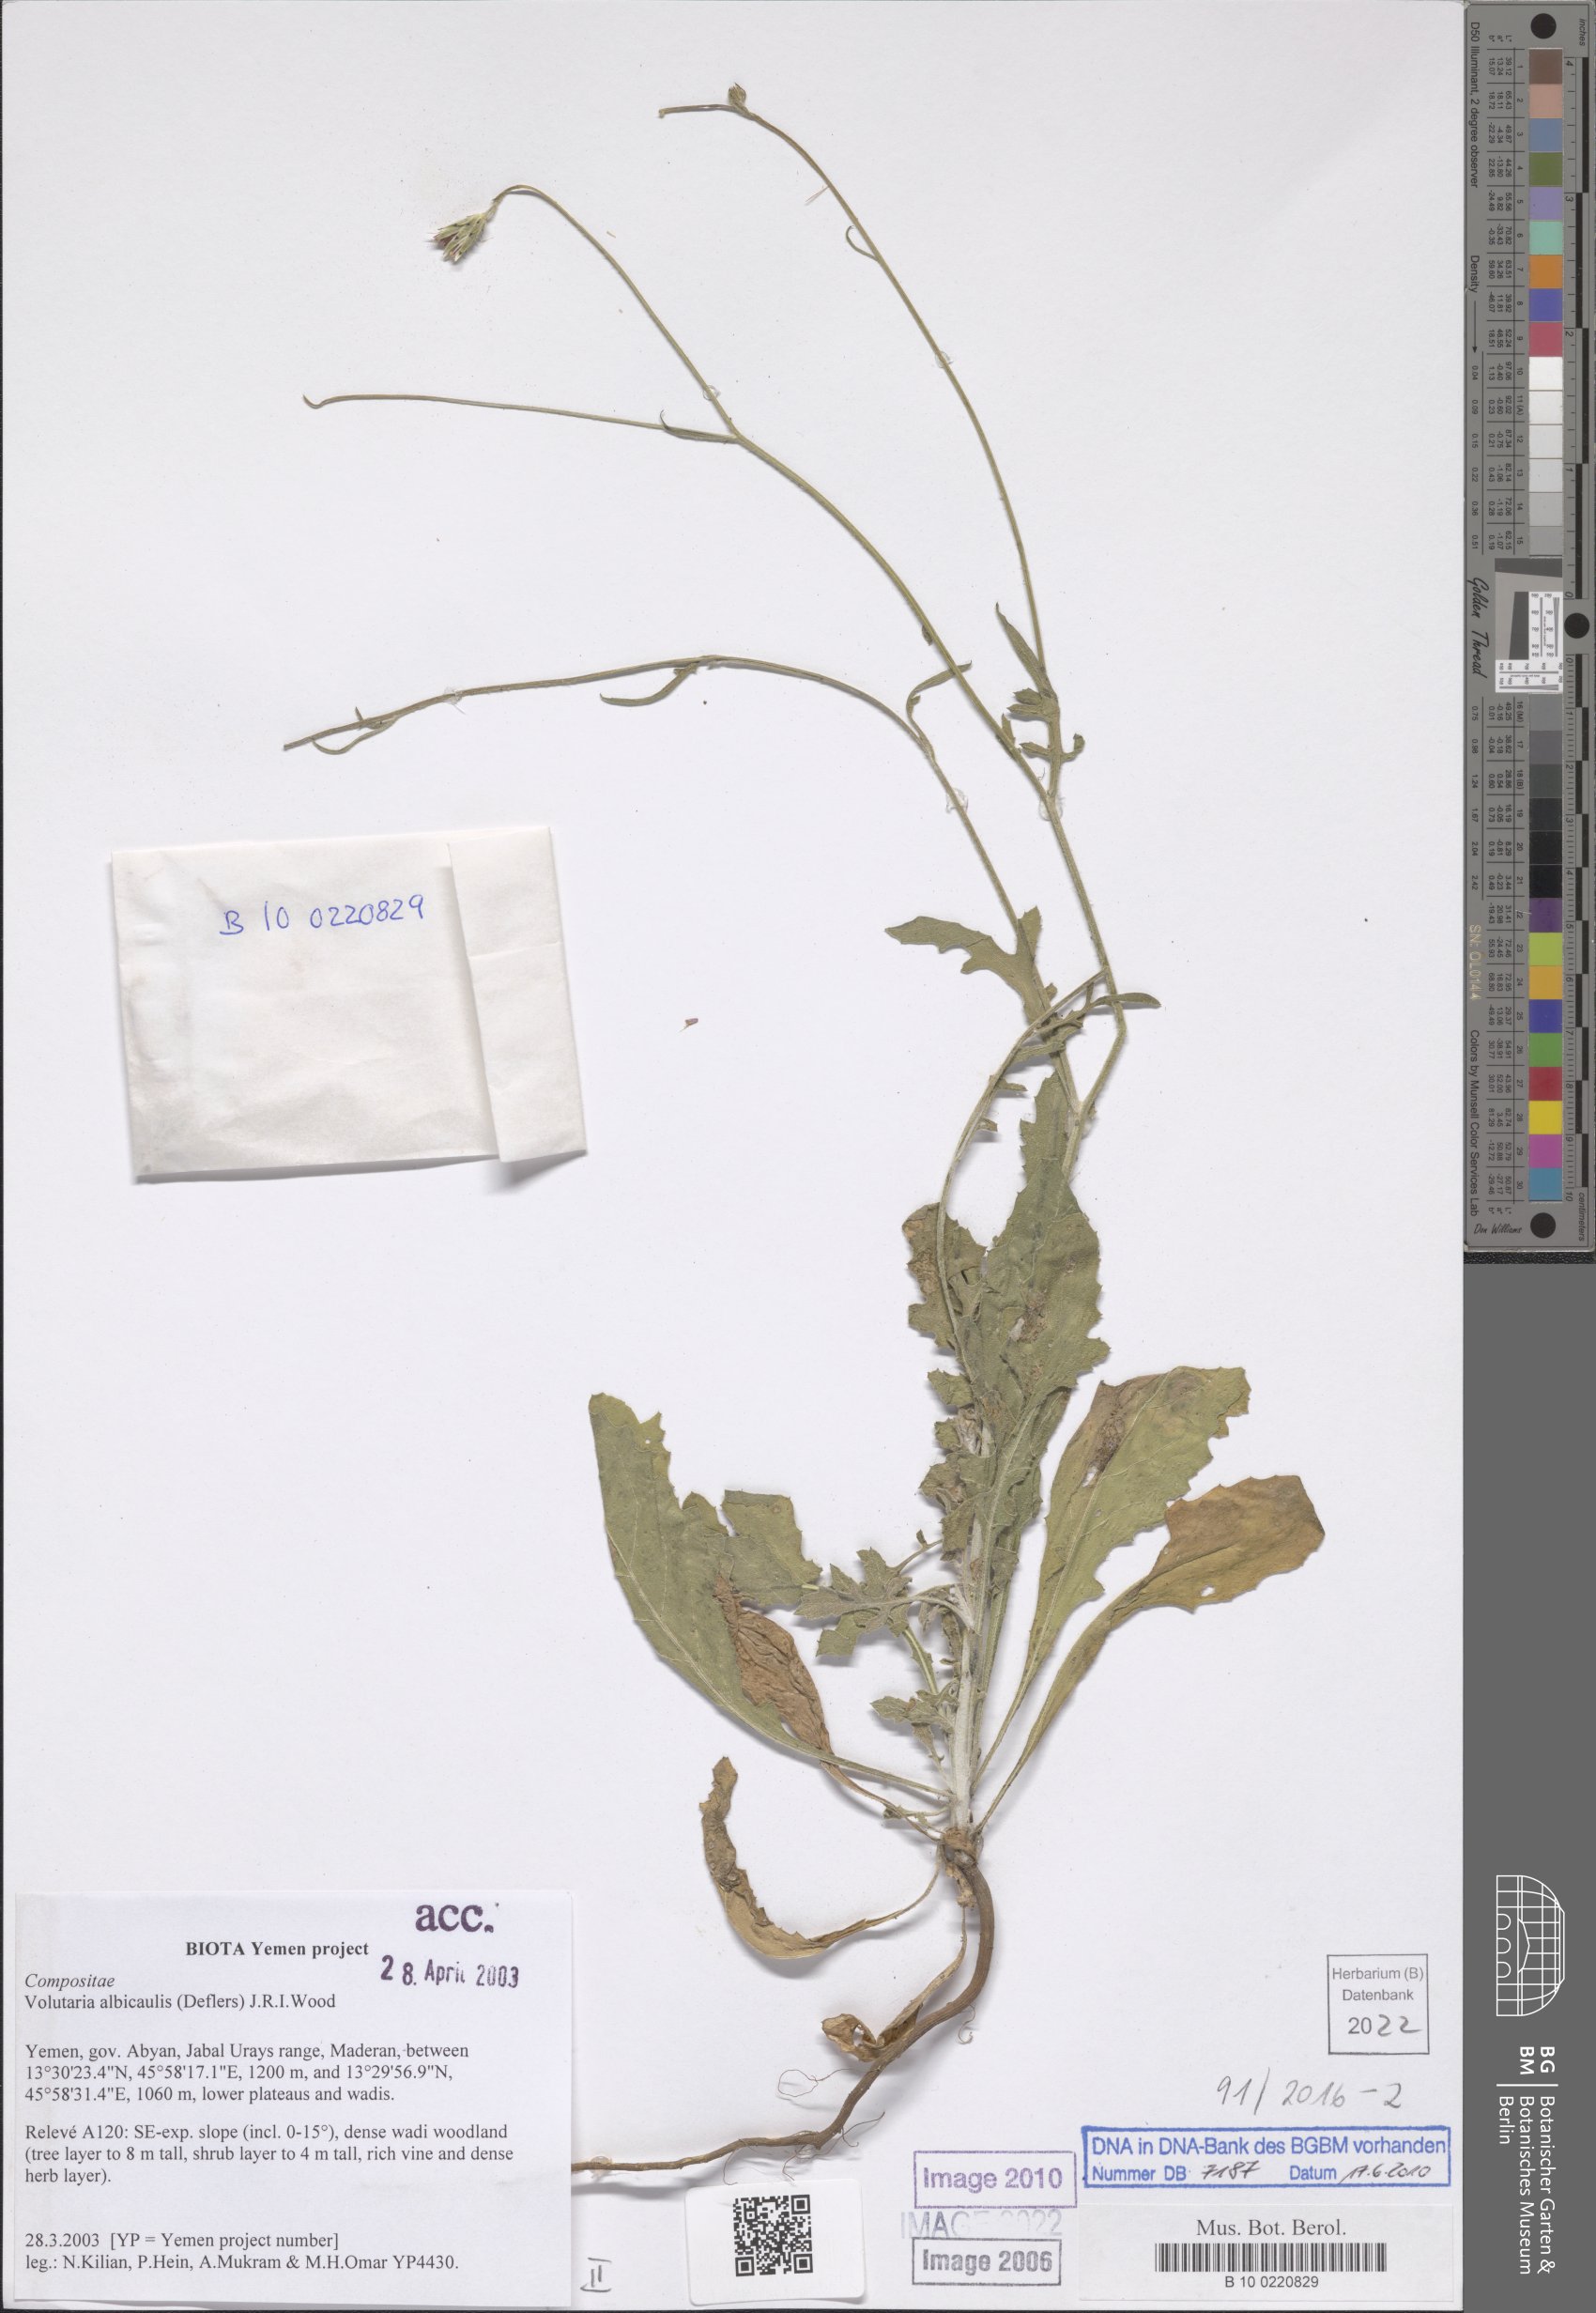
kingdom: Plantae
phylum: Tracheophyta
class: Magnoliopsida
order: Asterales
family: Asteraceae
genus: Volutaria
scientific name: Volutaria albicaulis
